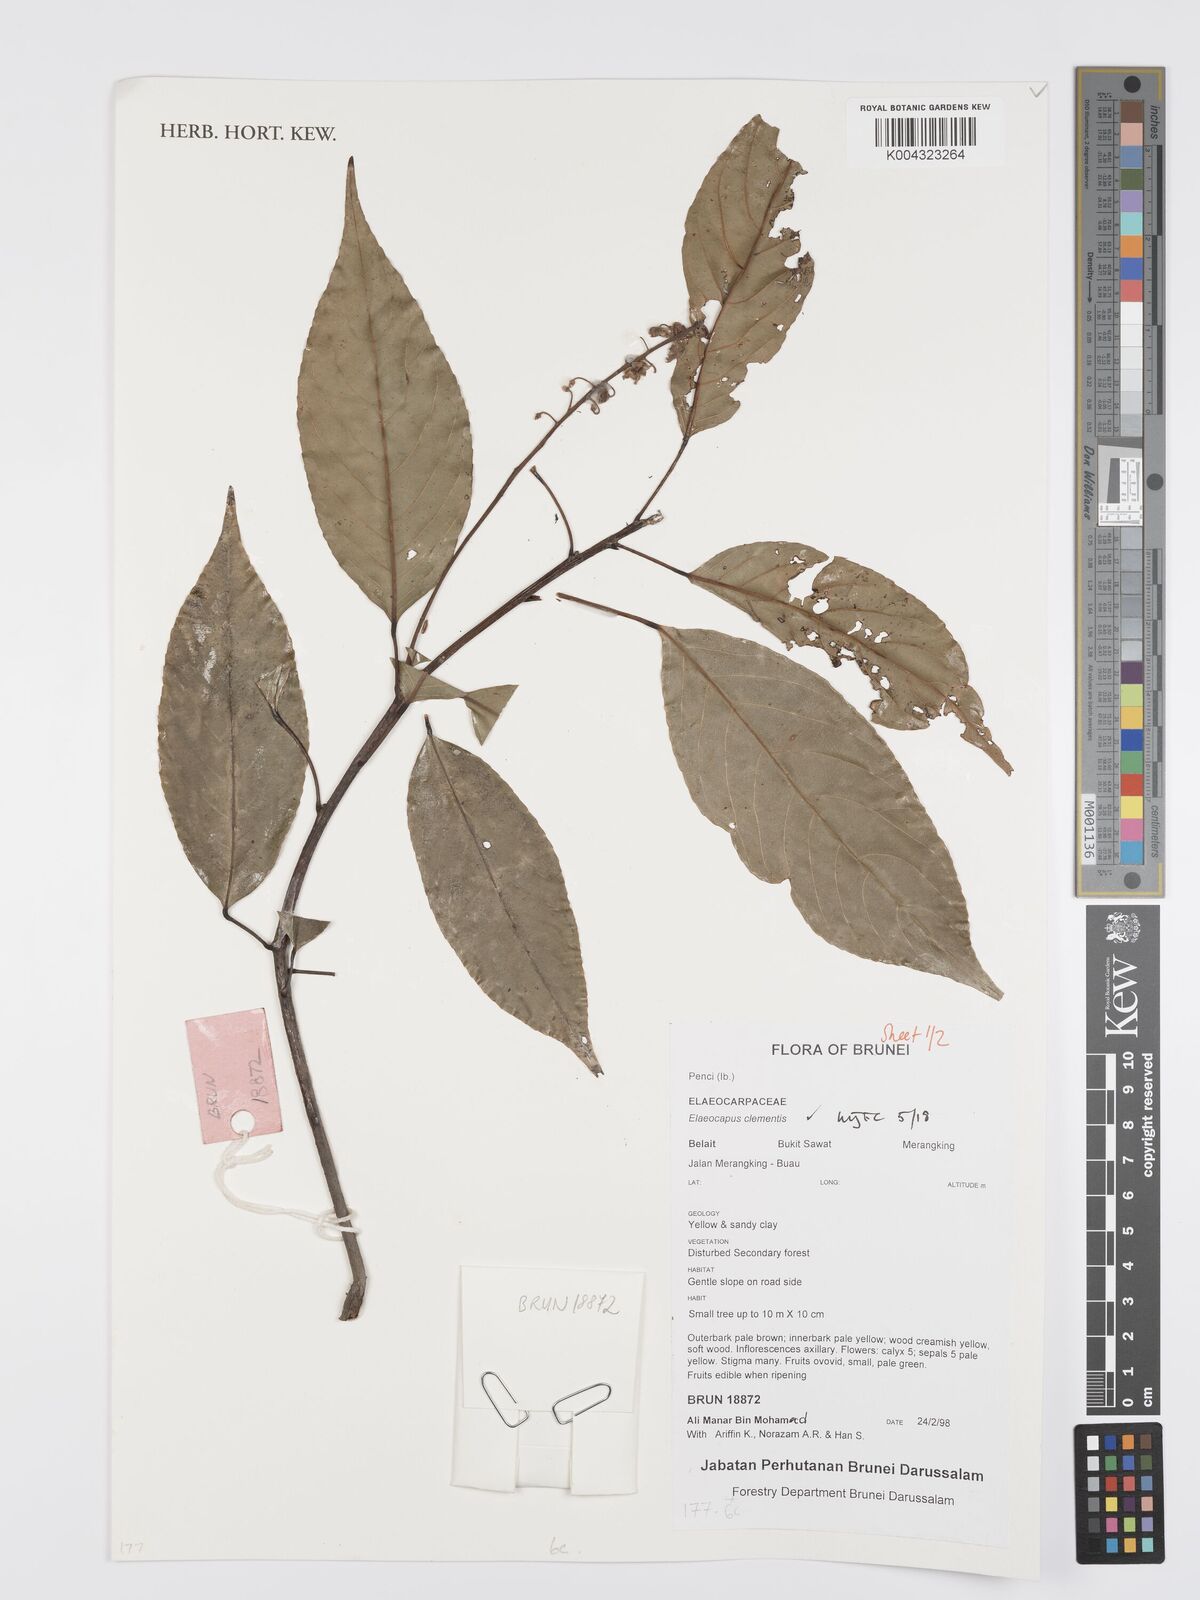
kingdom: Plantae
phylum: Tracheophyta
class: Magnoliopsida
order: Oxalidales
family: Elaeocarpaceae
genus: Elaeocarpus
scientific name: Elaeocarpus clementis
